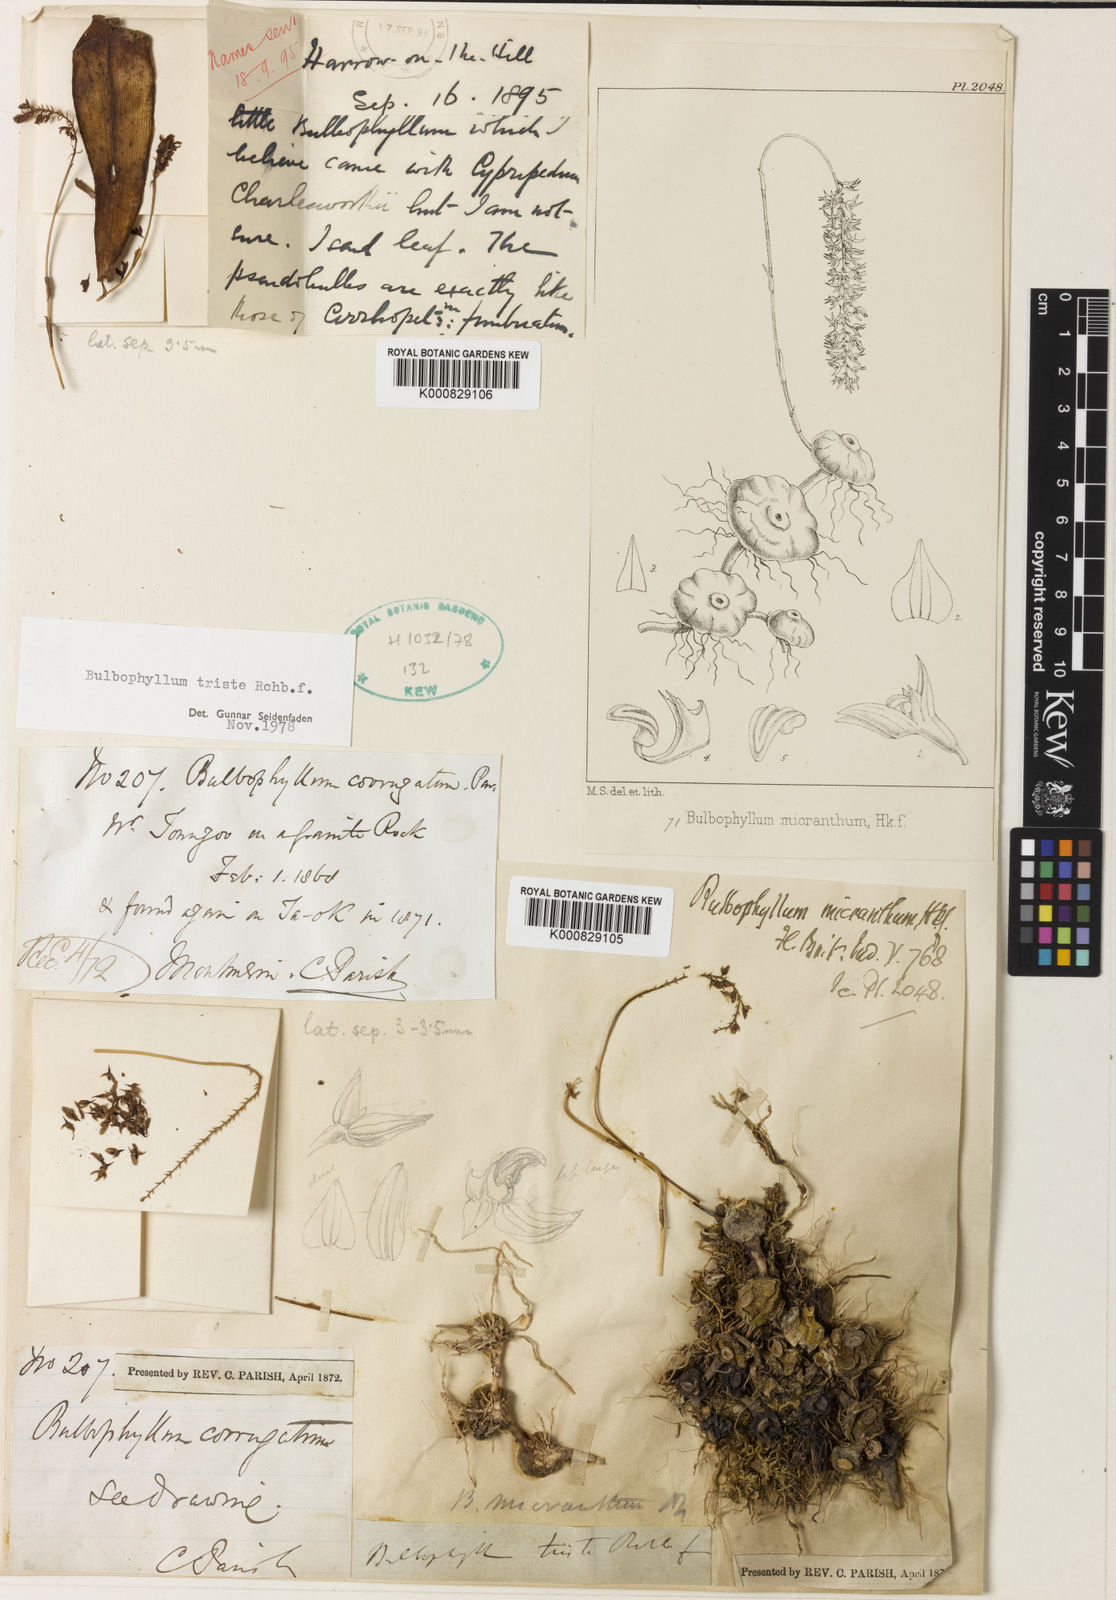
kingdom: Plantae
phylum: Tracheophyta
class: Liliopsida
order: Asparagales
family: Orchidaceae
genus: Bulbophyllum
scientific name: Bulbophyllum triste
